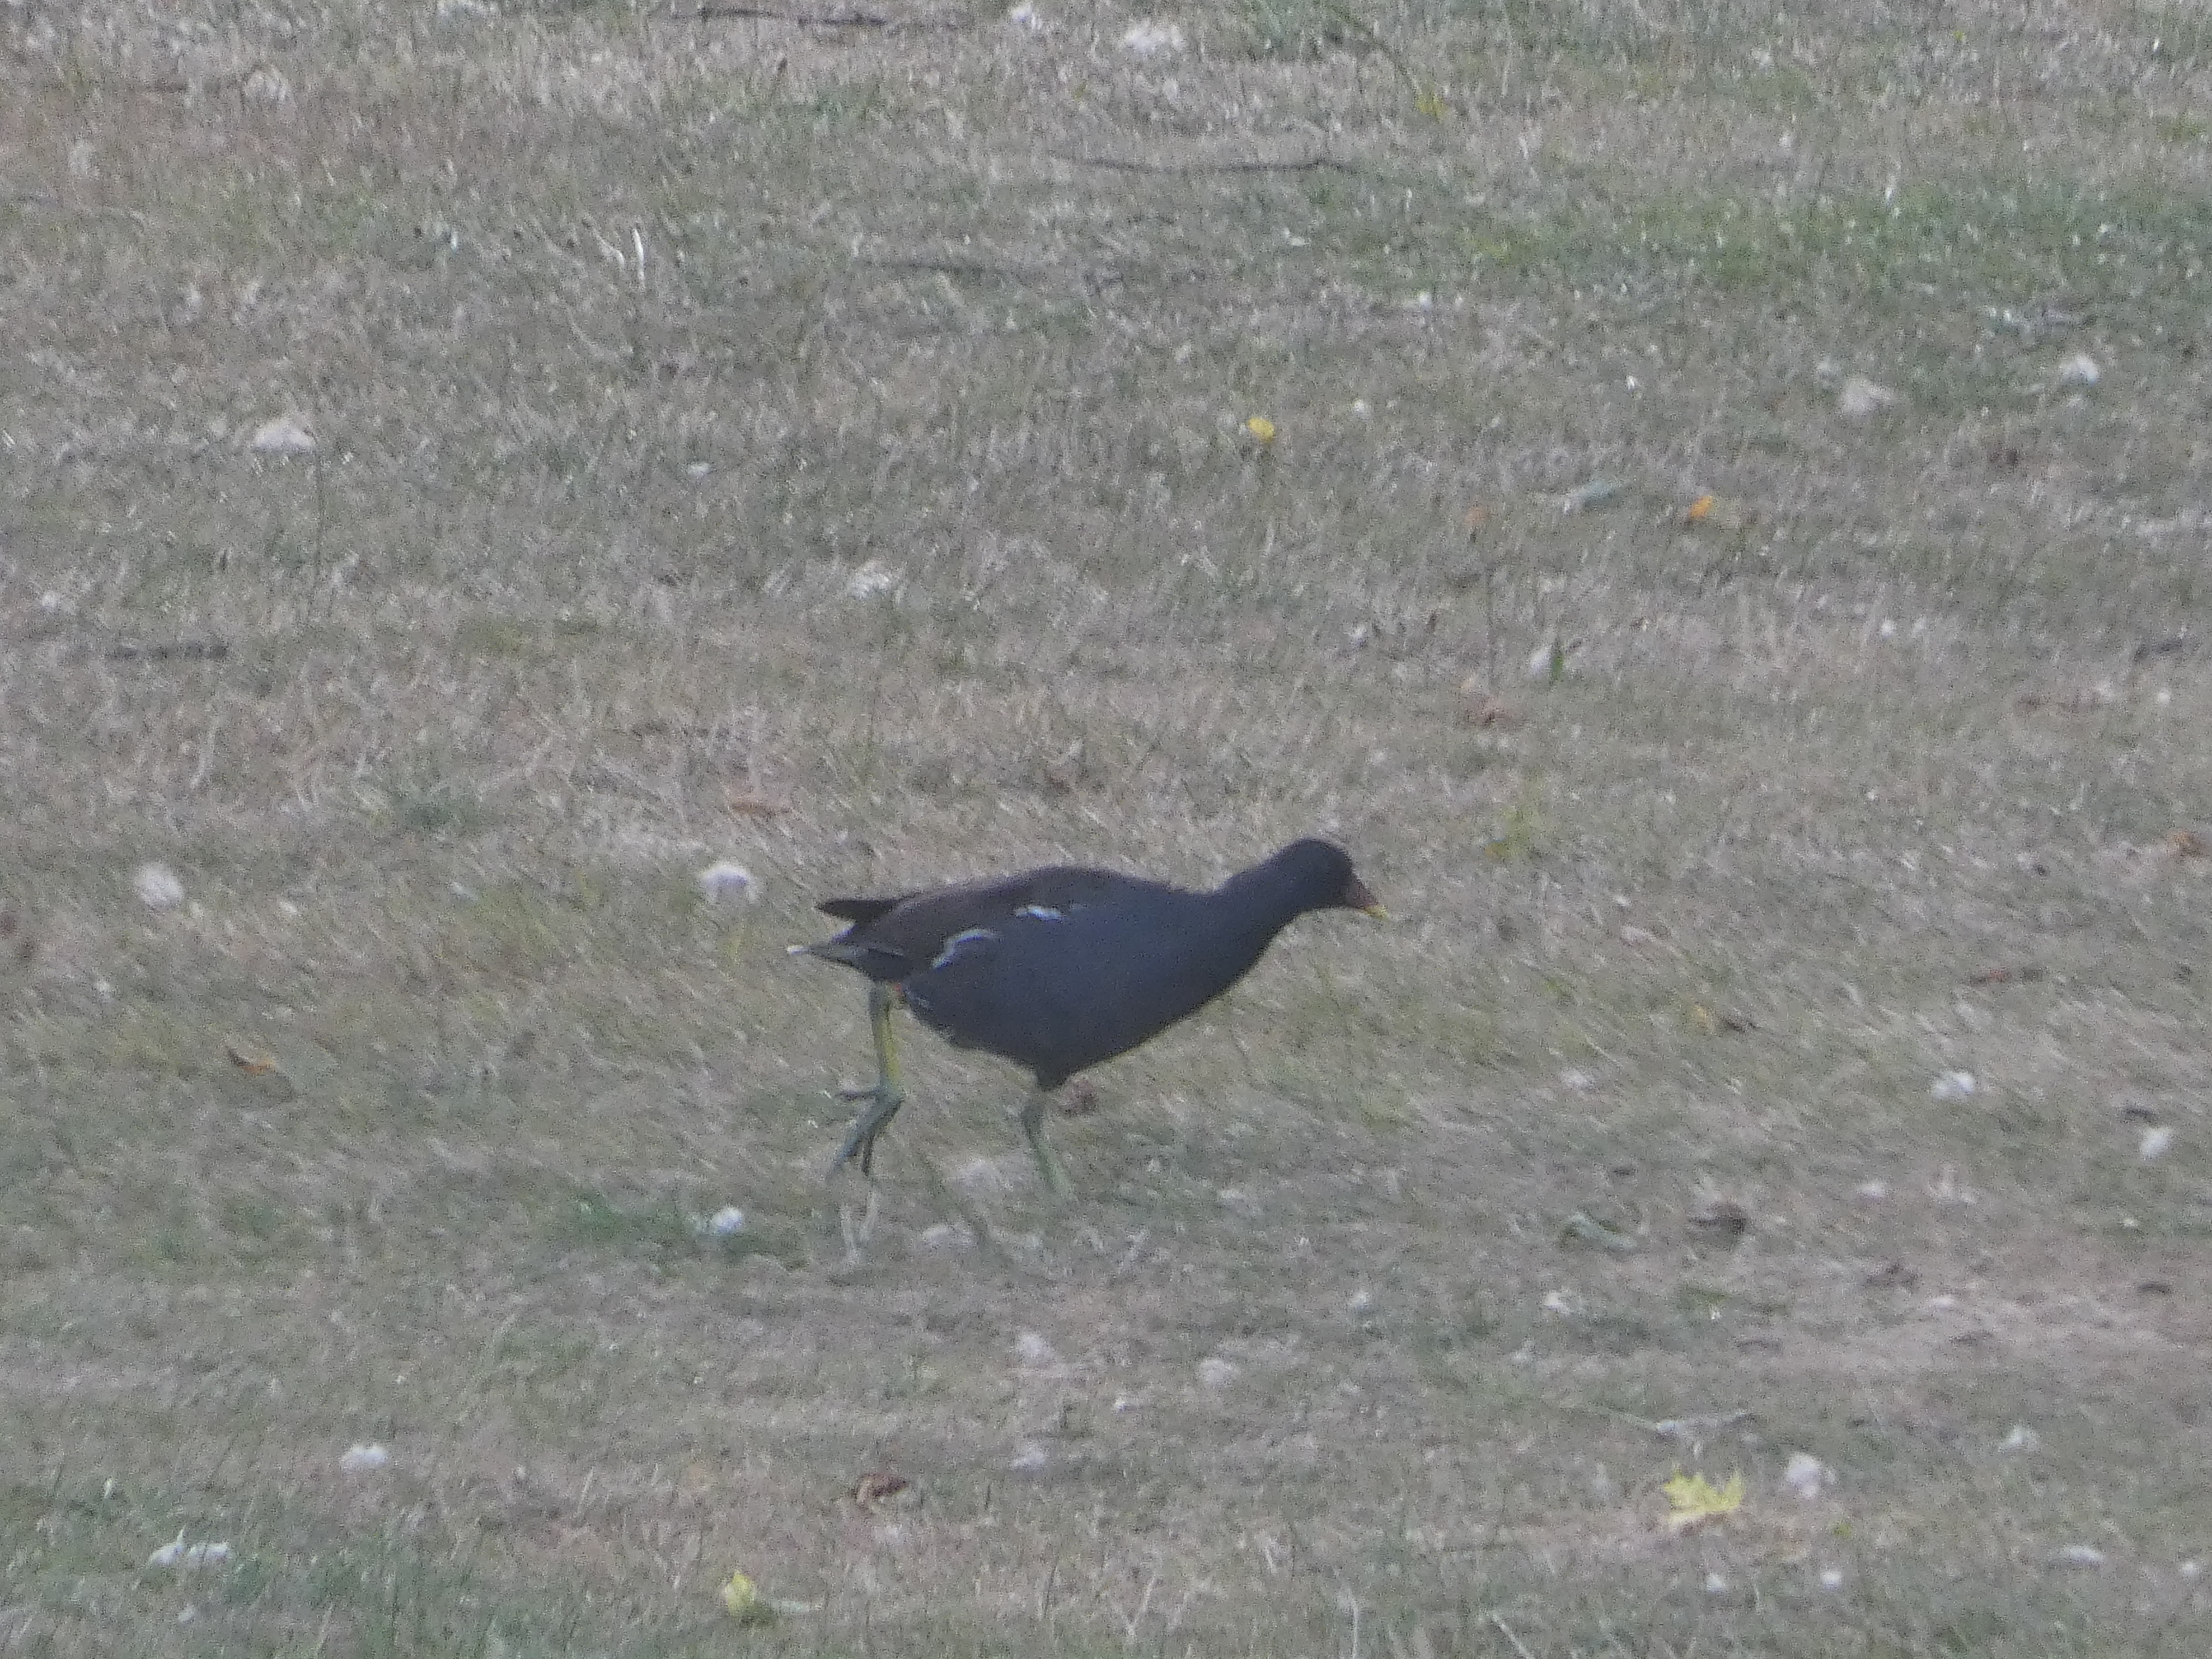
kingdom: Animalia
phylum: Chordata
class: Aves
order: Gruiformes
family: Rallidae
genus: Gallinula
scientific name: Gallinula chloropus
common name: Grønbenet rørhøne
